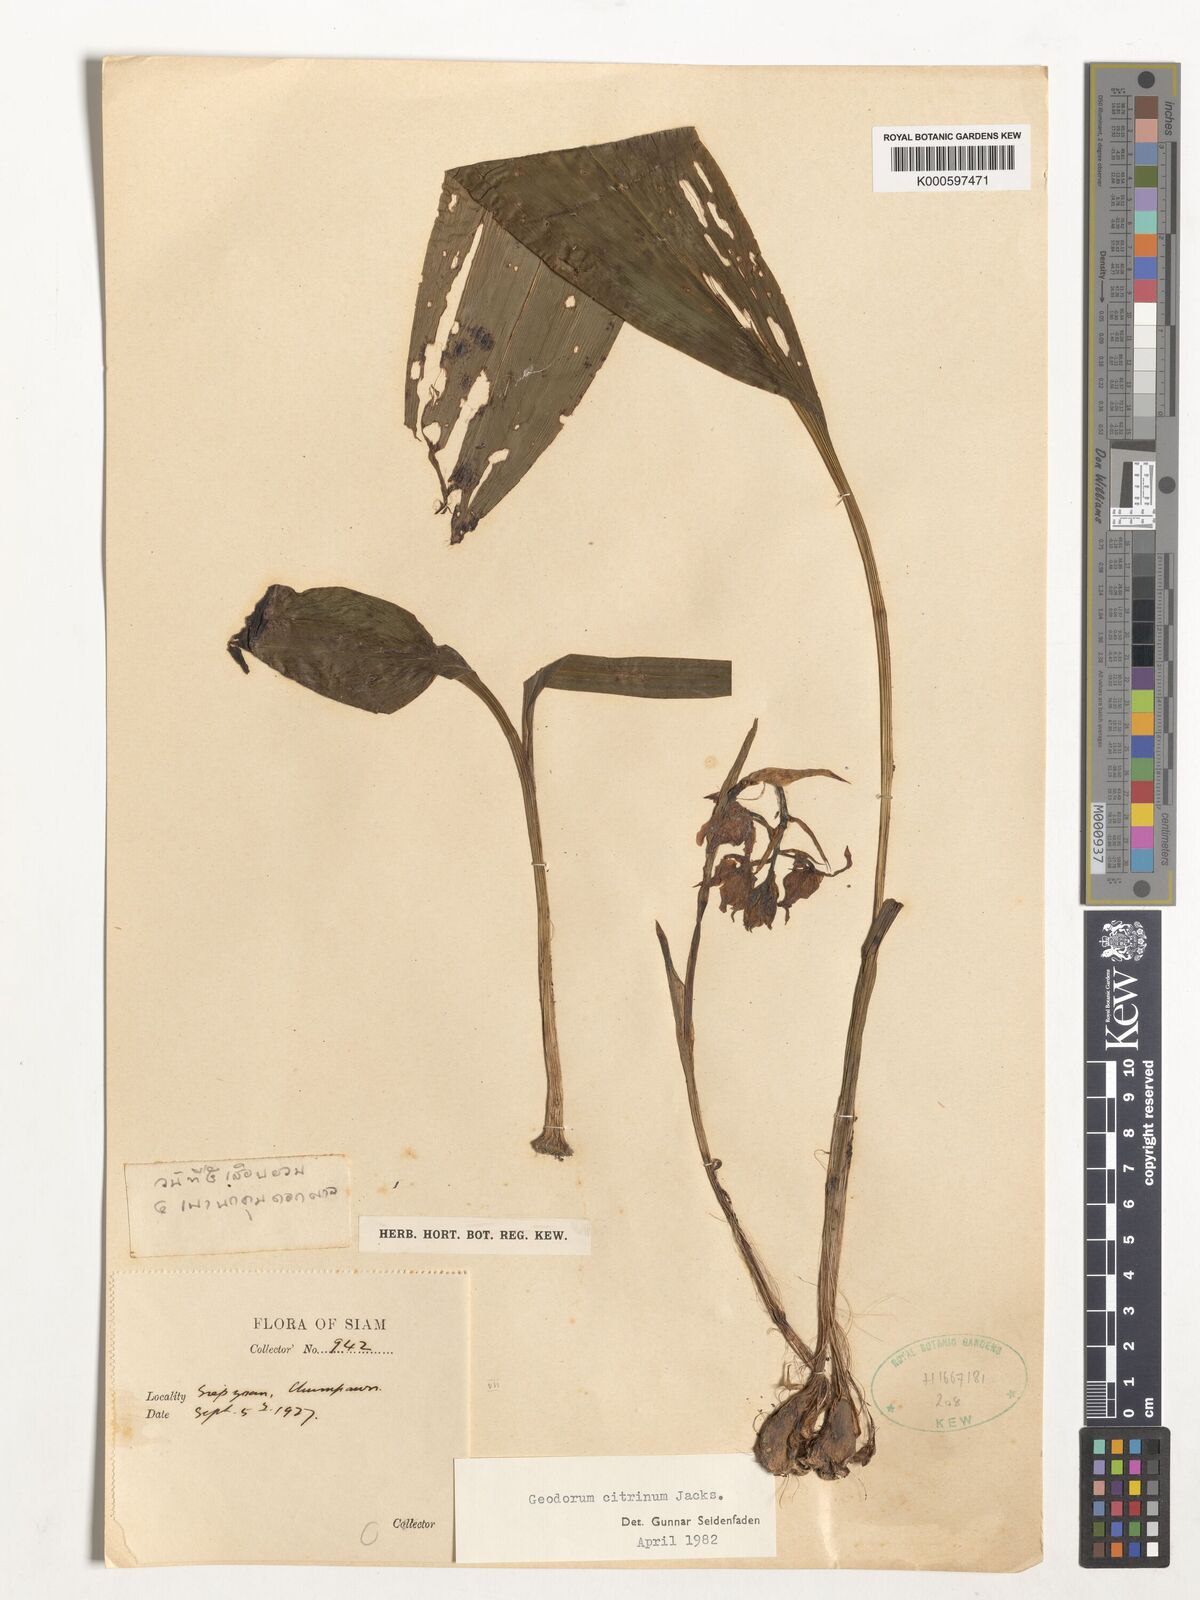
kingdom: Plantae
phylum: Tracheophyta
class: Liliopsida
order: Asparagales
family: Orchidaceae
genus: Geodorum
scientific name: Geodorum
